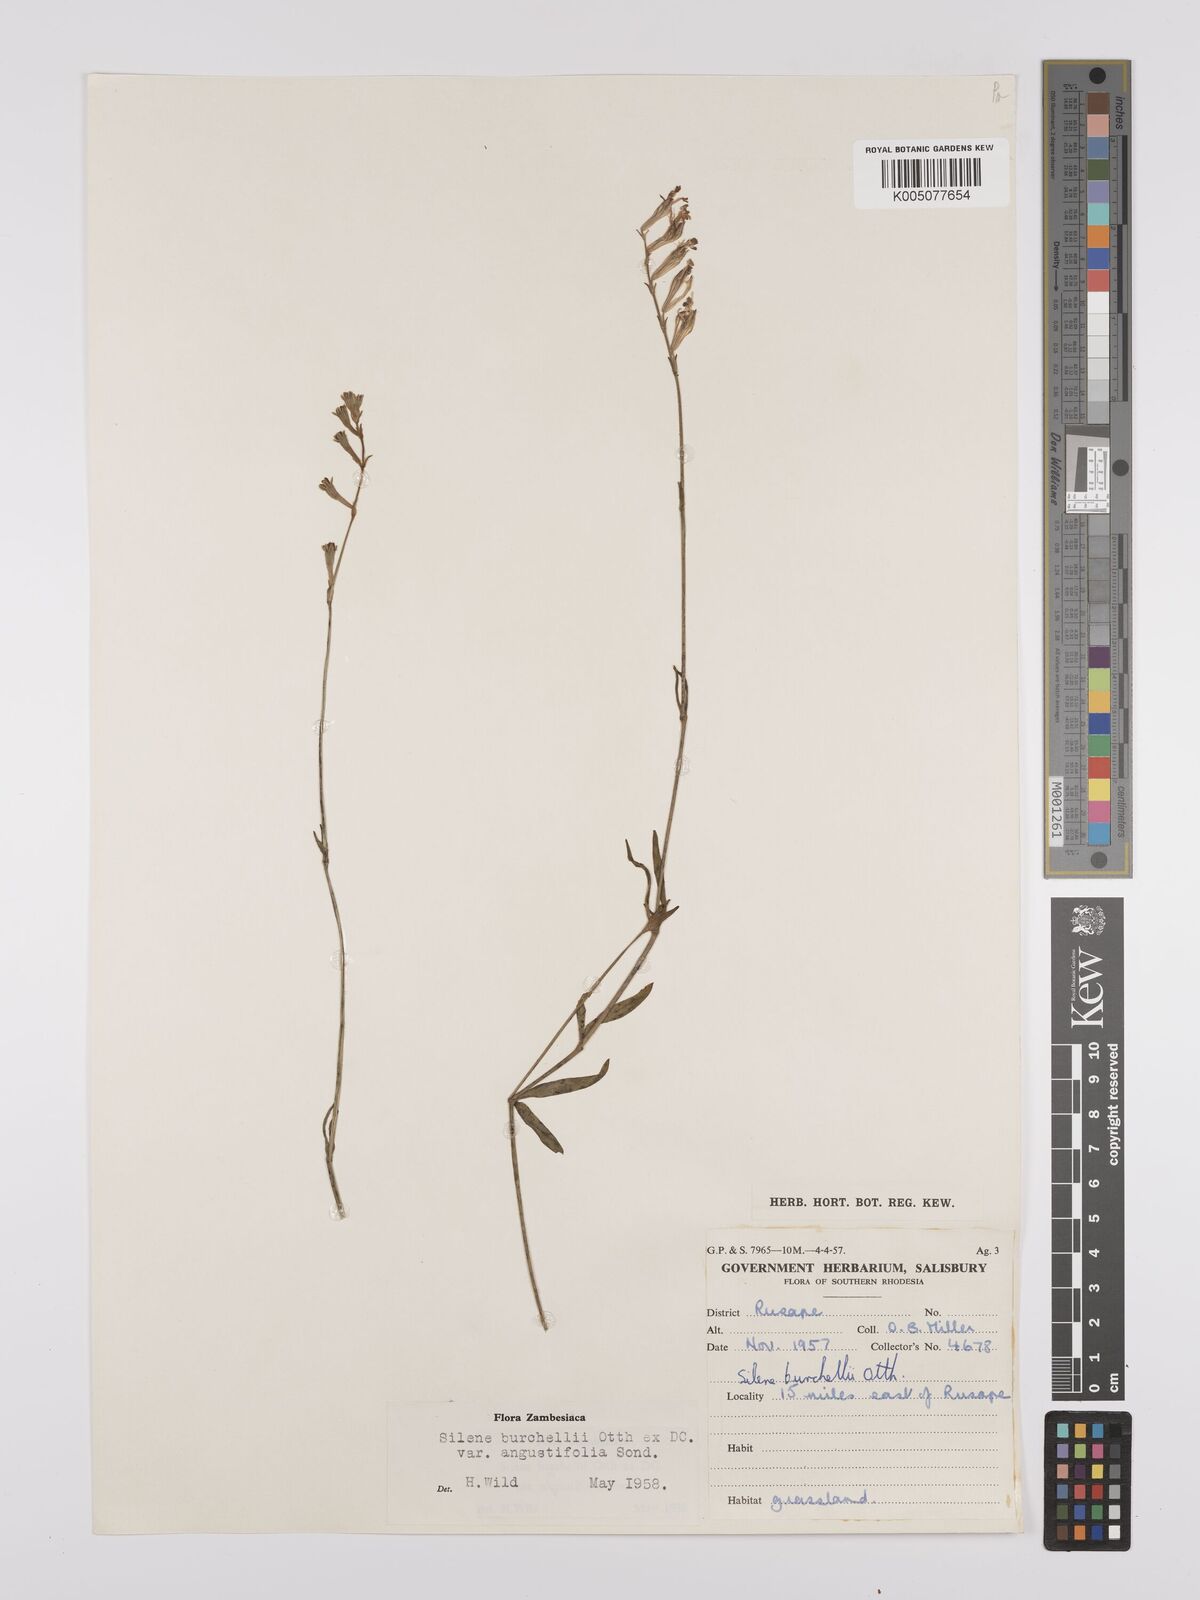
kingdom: Plantae
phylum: Tracheophyta
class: Magnoliopsida
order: Caryophyllales
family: Caryophyllaceae
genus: Silene
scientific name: Silene burchellii
